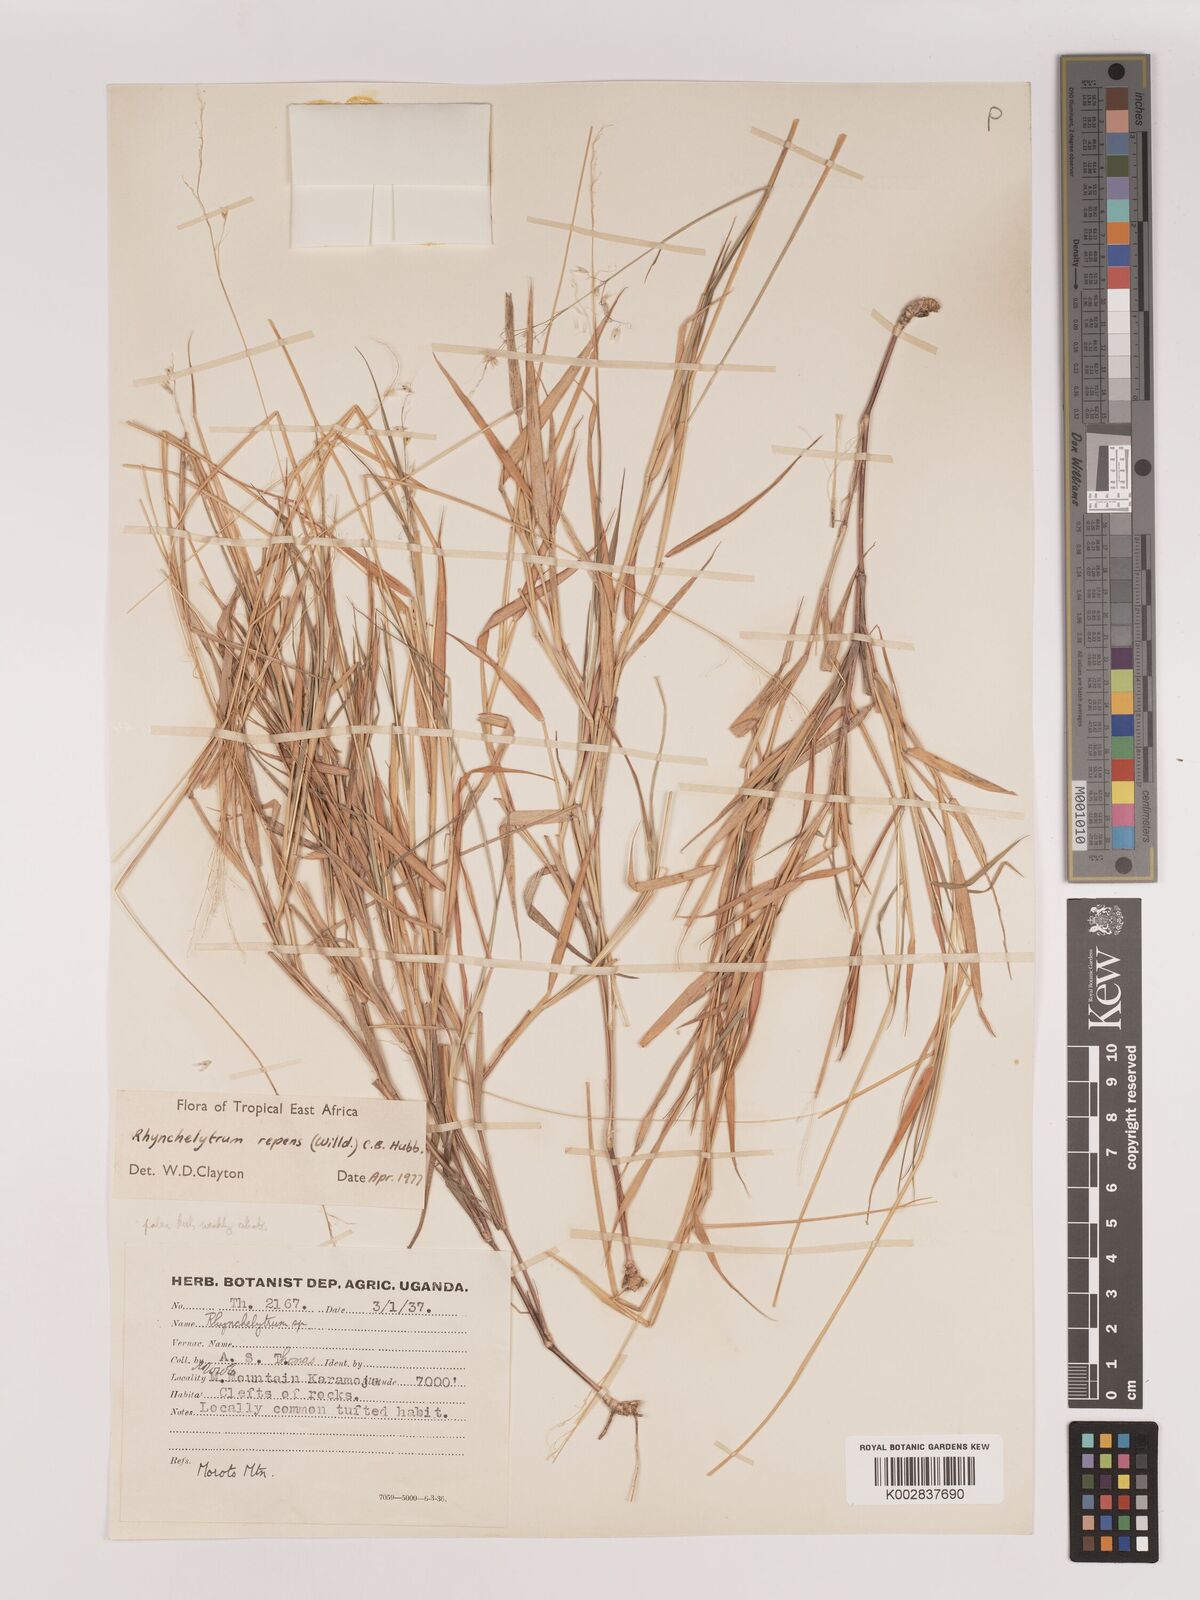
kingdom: Plantae
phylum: Tracheophyta
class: Liliopsida
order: Poales
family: Poaceae
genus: Melinis
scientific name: Melinis repens
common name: Rose natal grass
